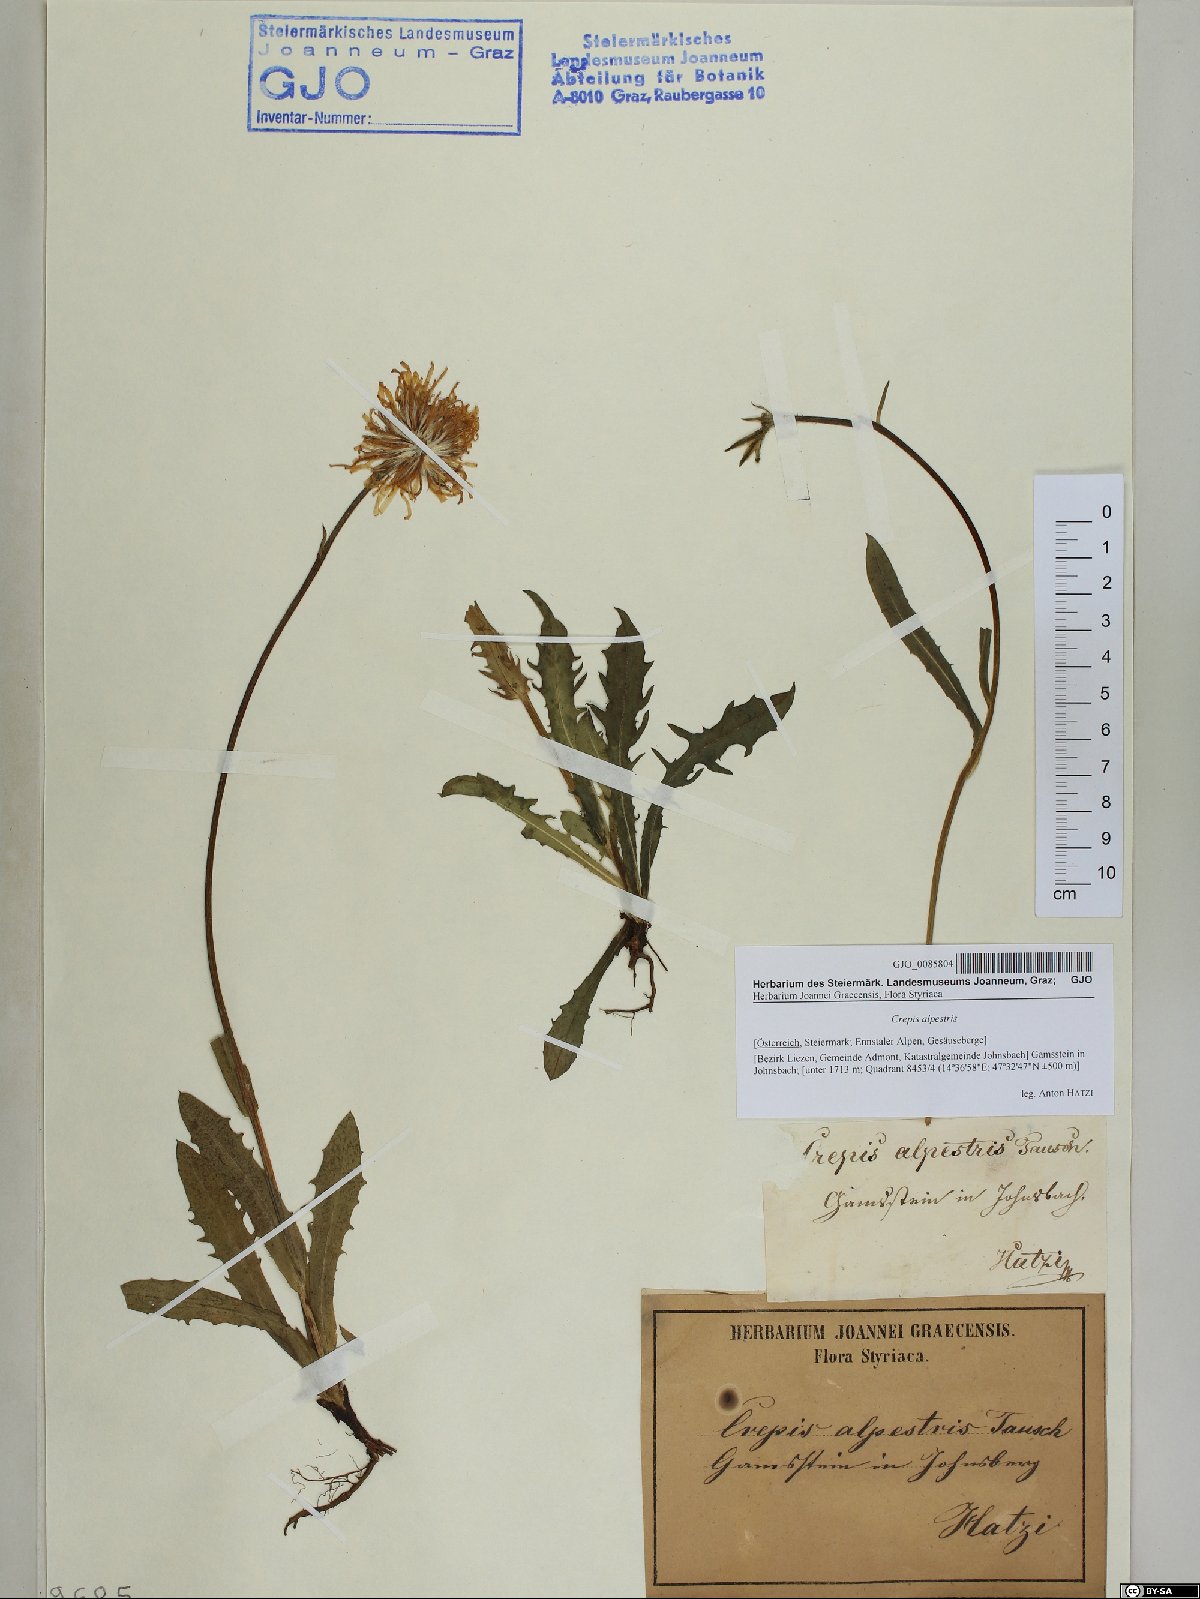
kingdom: Plantae
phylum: Tracheophyta
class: Magnoliopsida
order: Asterales
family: Asteraceae
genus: Crepis
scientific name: Crepis alpestris
